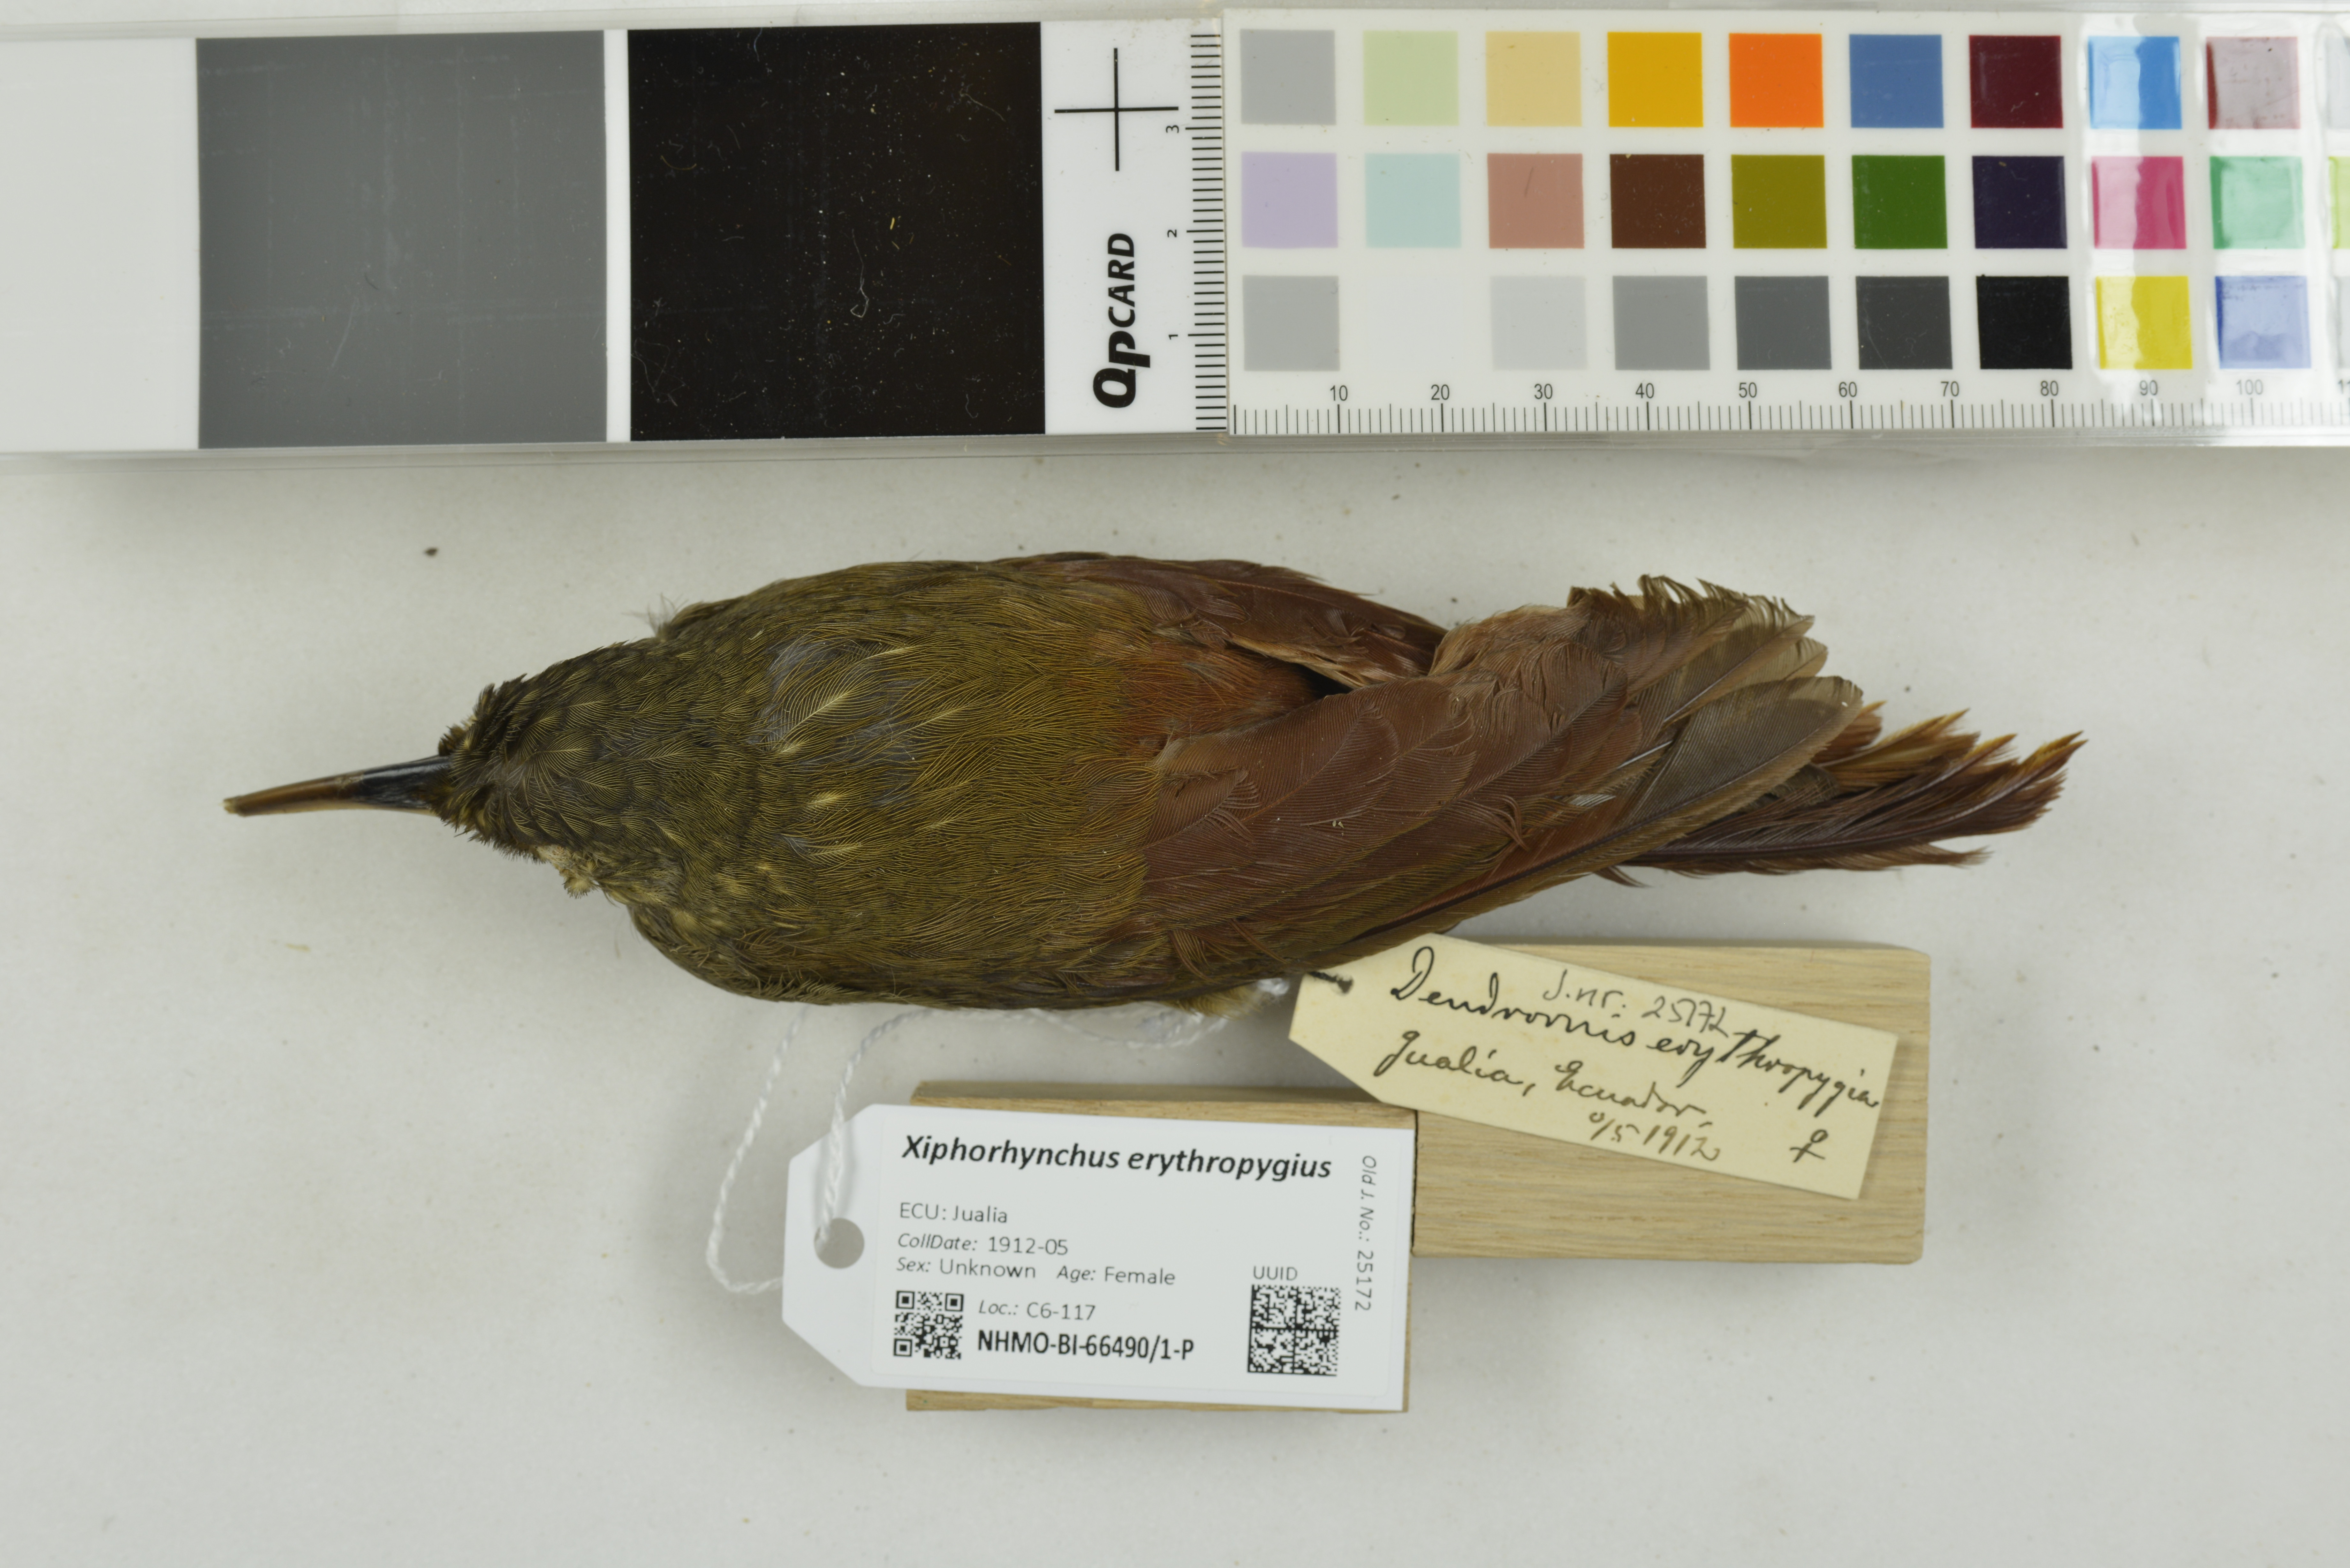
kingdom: Animalia
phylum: Chordata
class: Aves
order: Passeriformes
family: Furnariidae
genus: Xiphorhynchus
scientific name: Xiphorhynchus erythropygius
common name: Spotted woodcreeper
